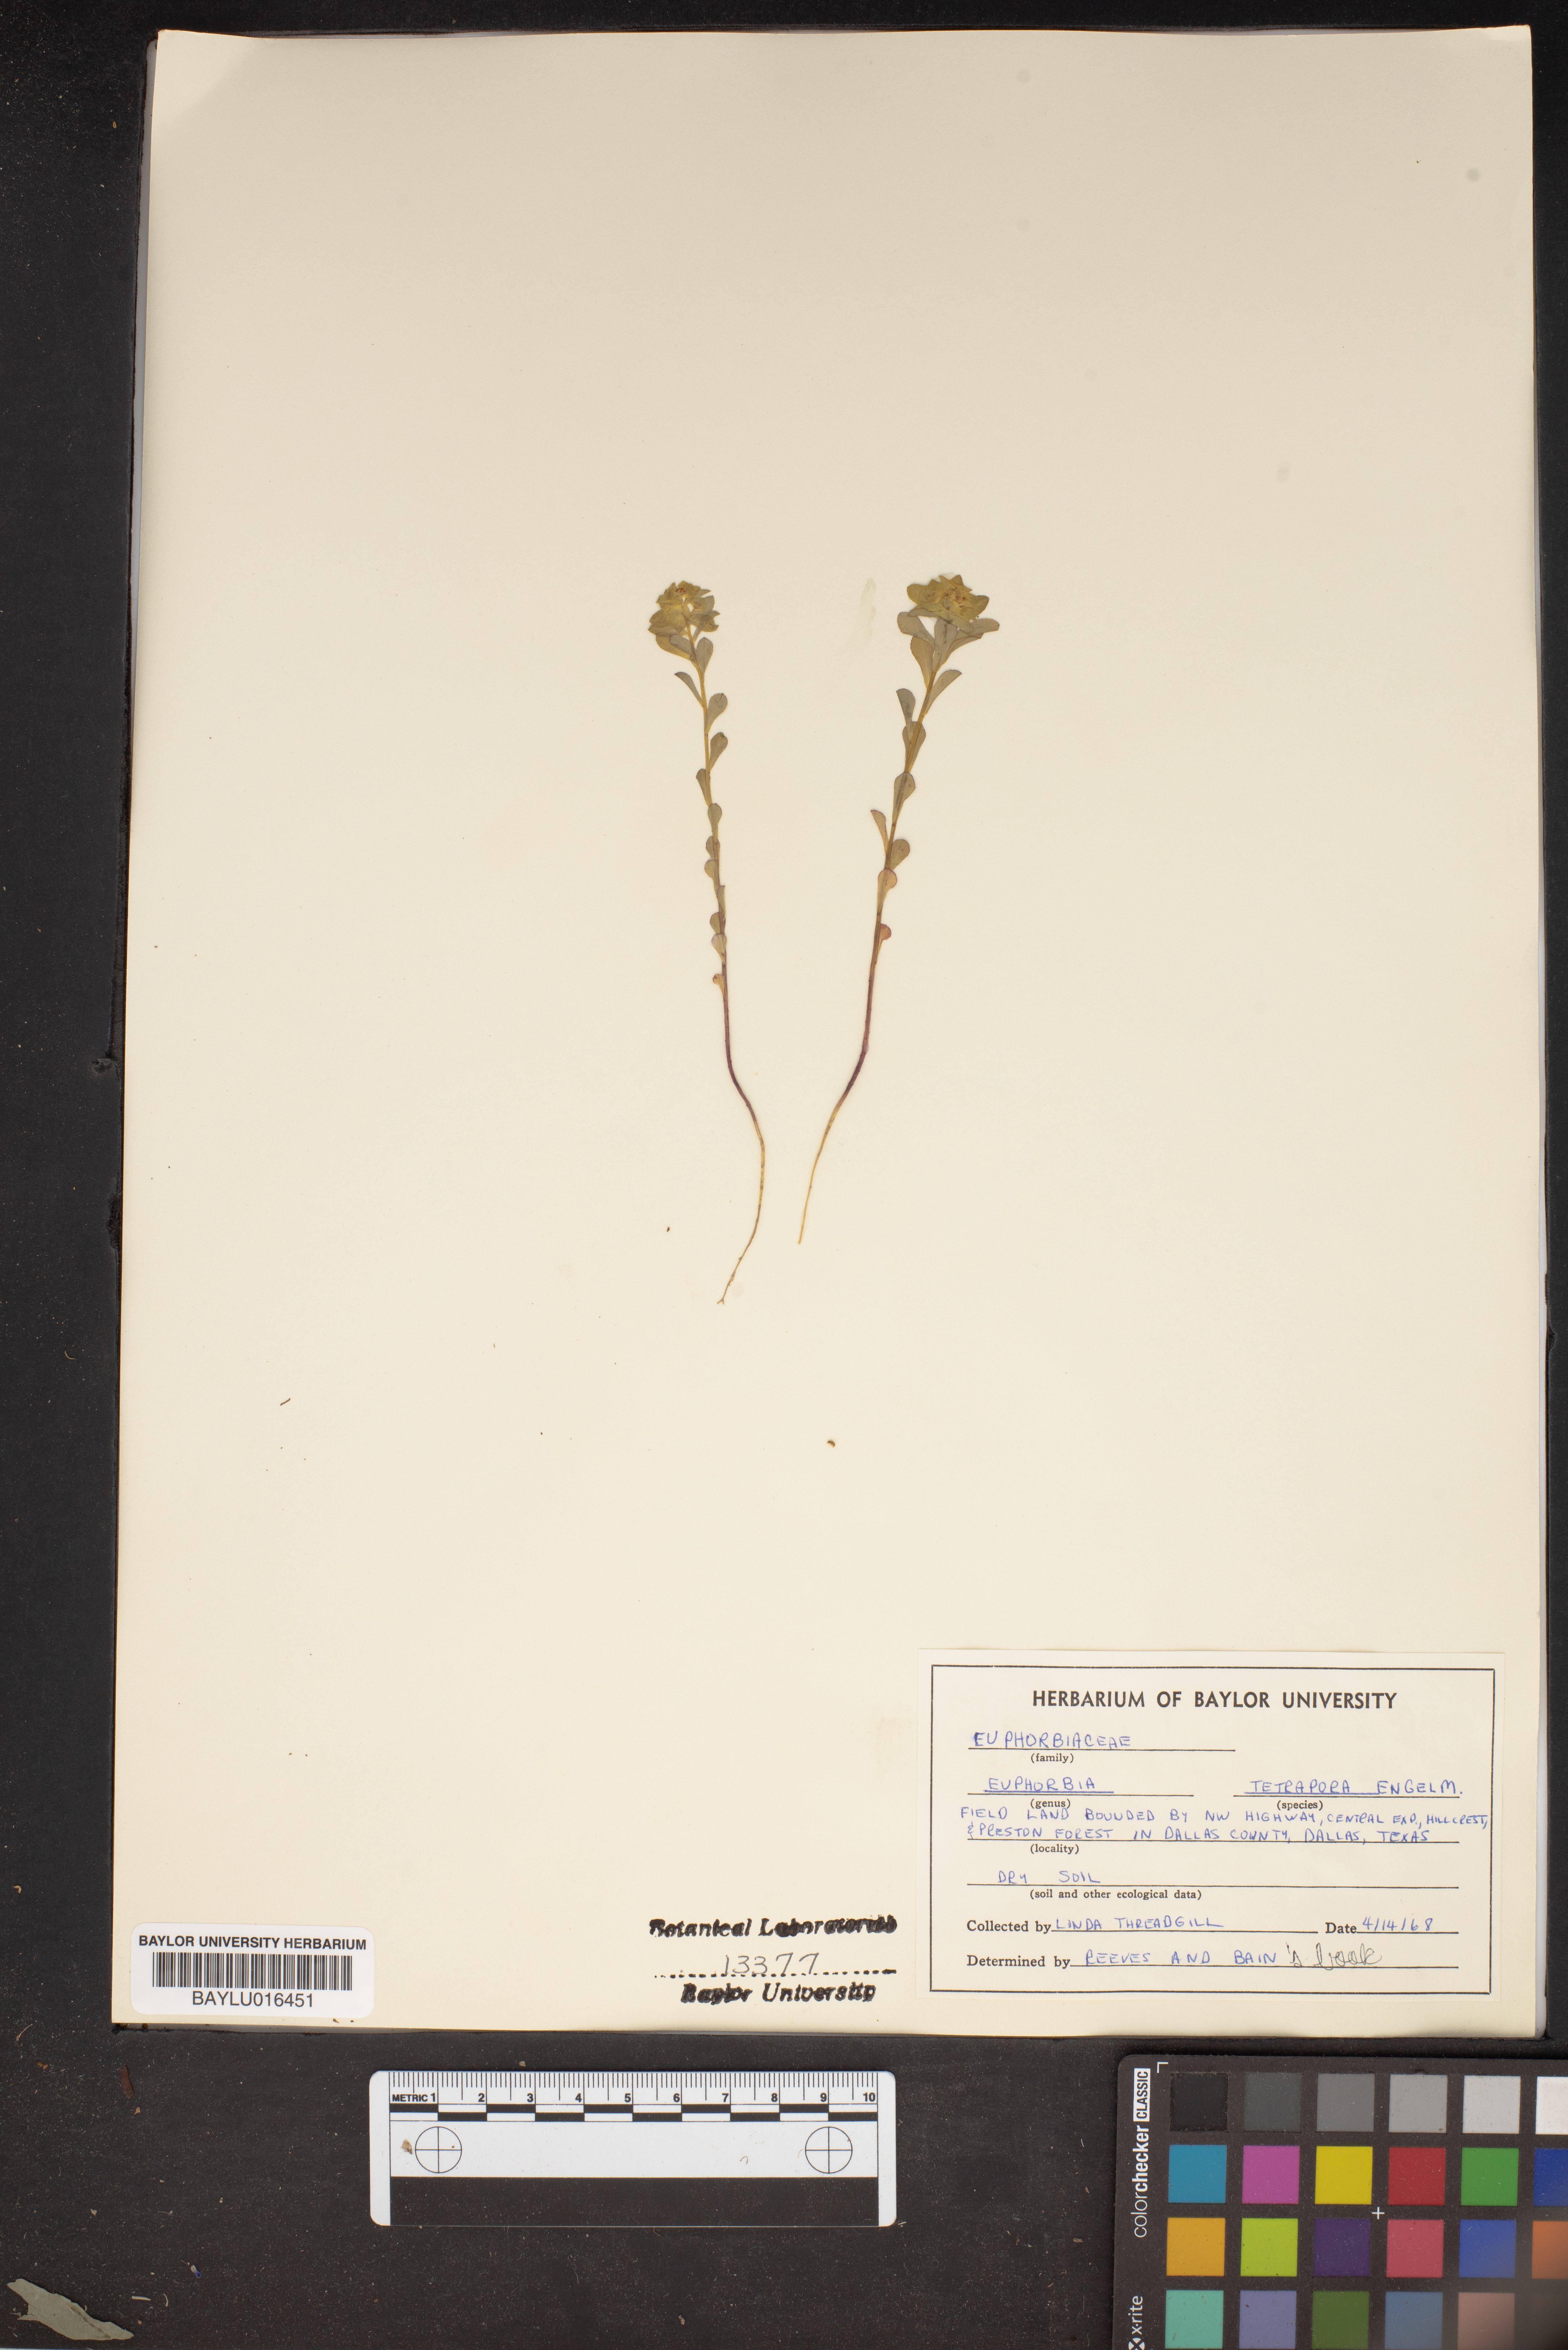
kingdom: Plantae
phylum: Tracheophyta
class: Magnoliopsida
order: Malpighiales
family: Euphorbiaceae
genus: Euphorbia
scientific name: Euphorbia tetrapora
